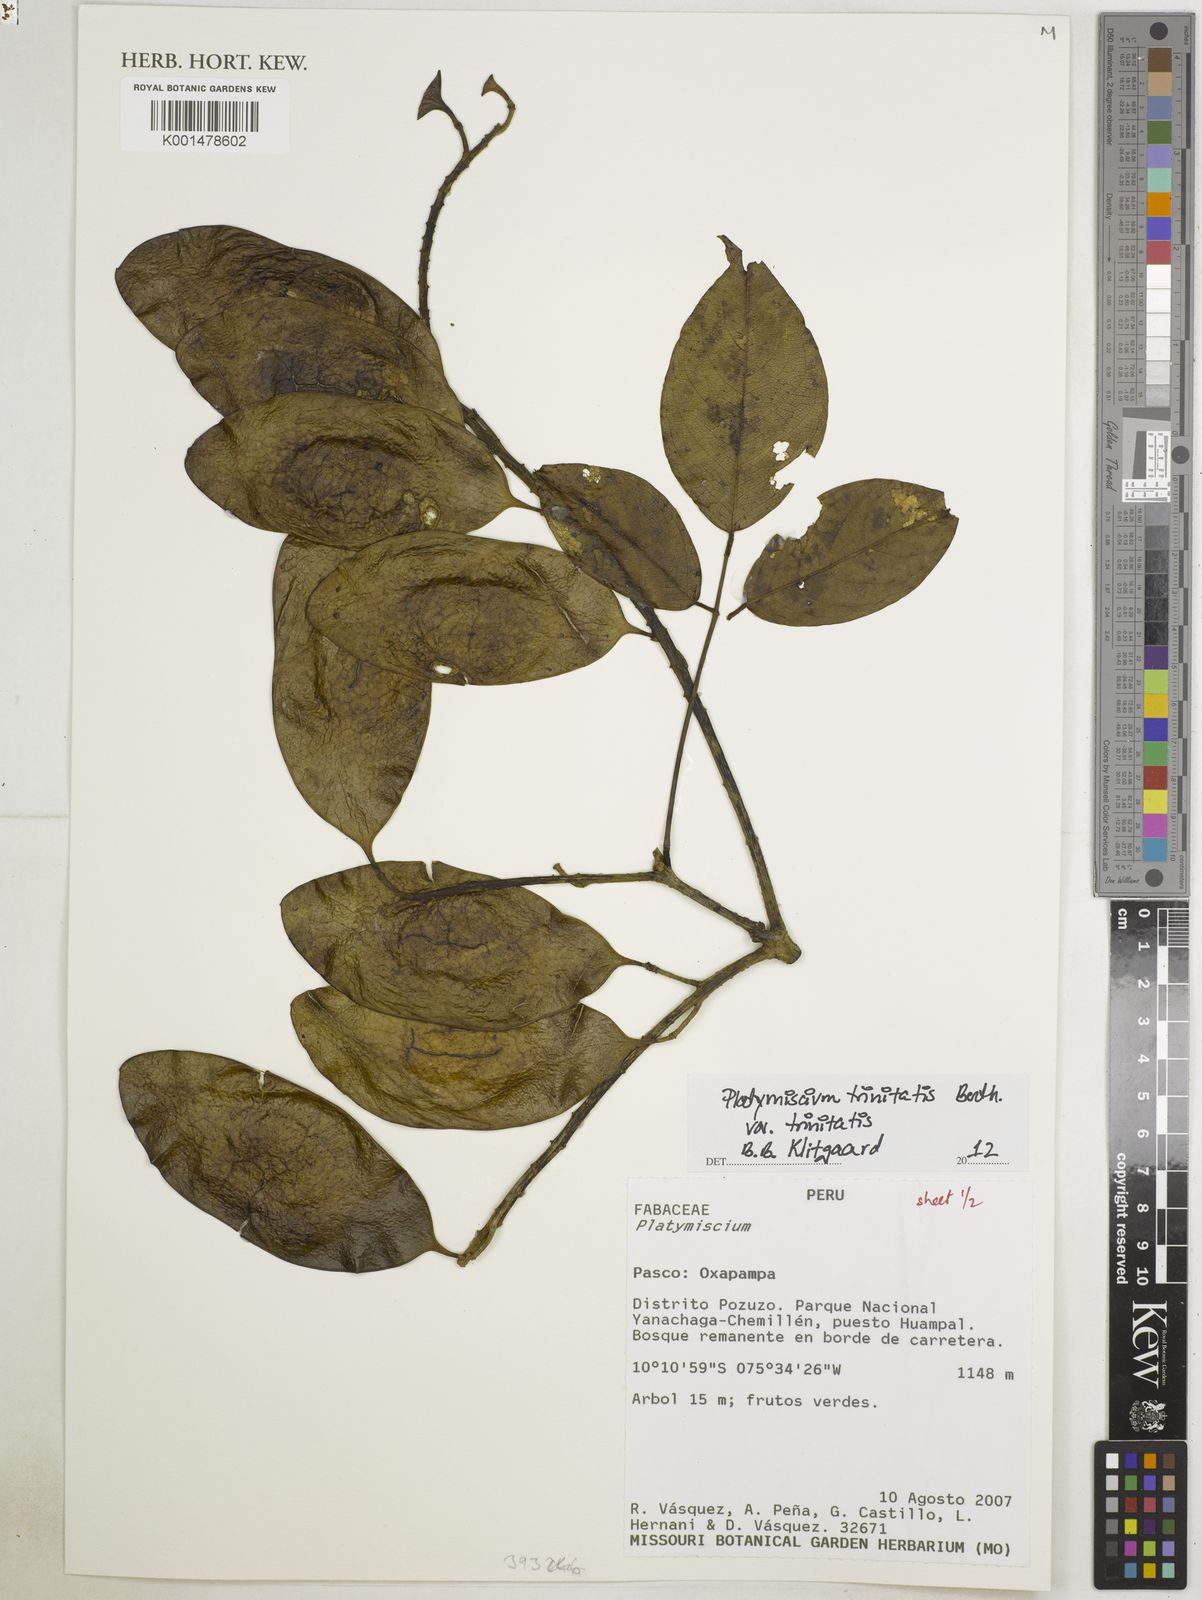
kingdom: Plantae
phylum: Tracheophyta
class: Magnoliopsida
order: Fabales
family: Fabaceae
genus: Platymiscium
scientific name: Platymiscium trinitatis
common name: Trinidad macawood
